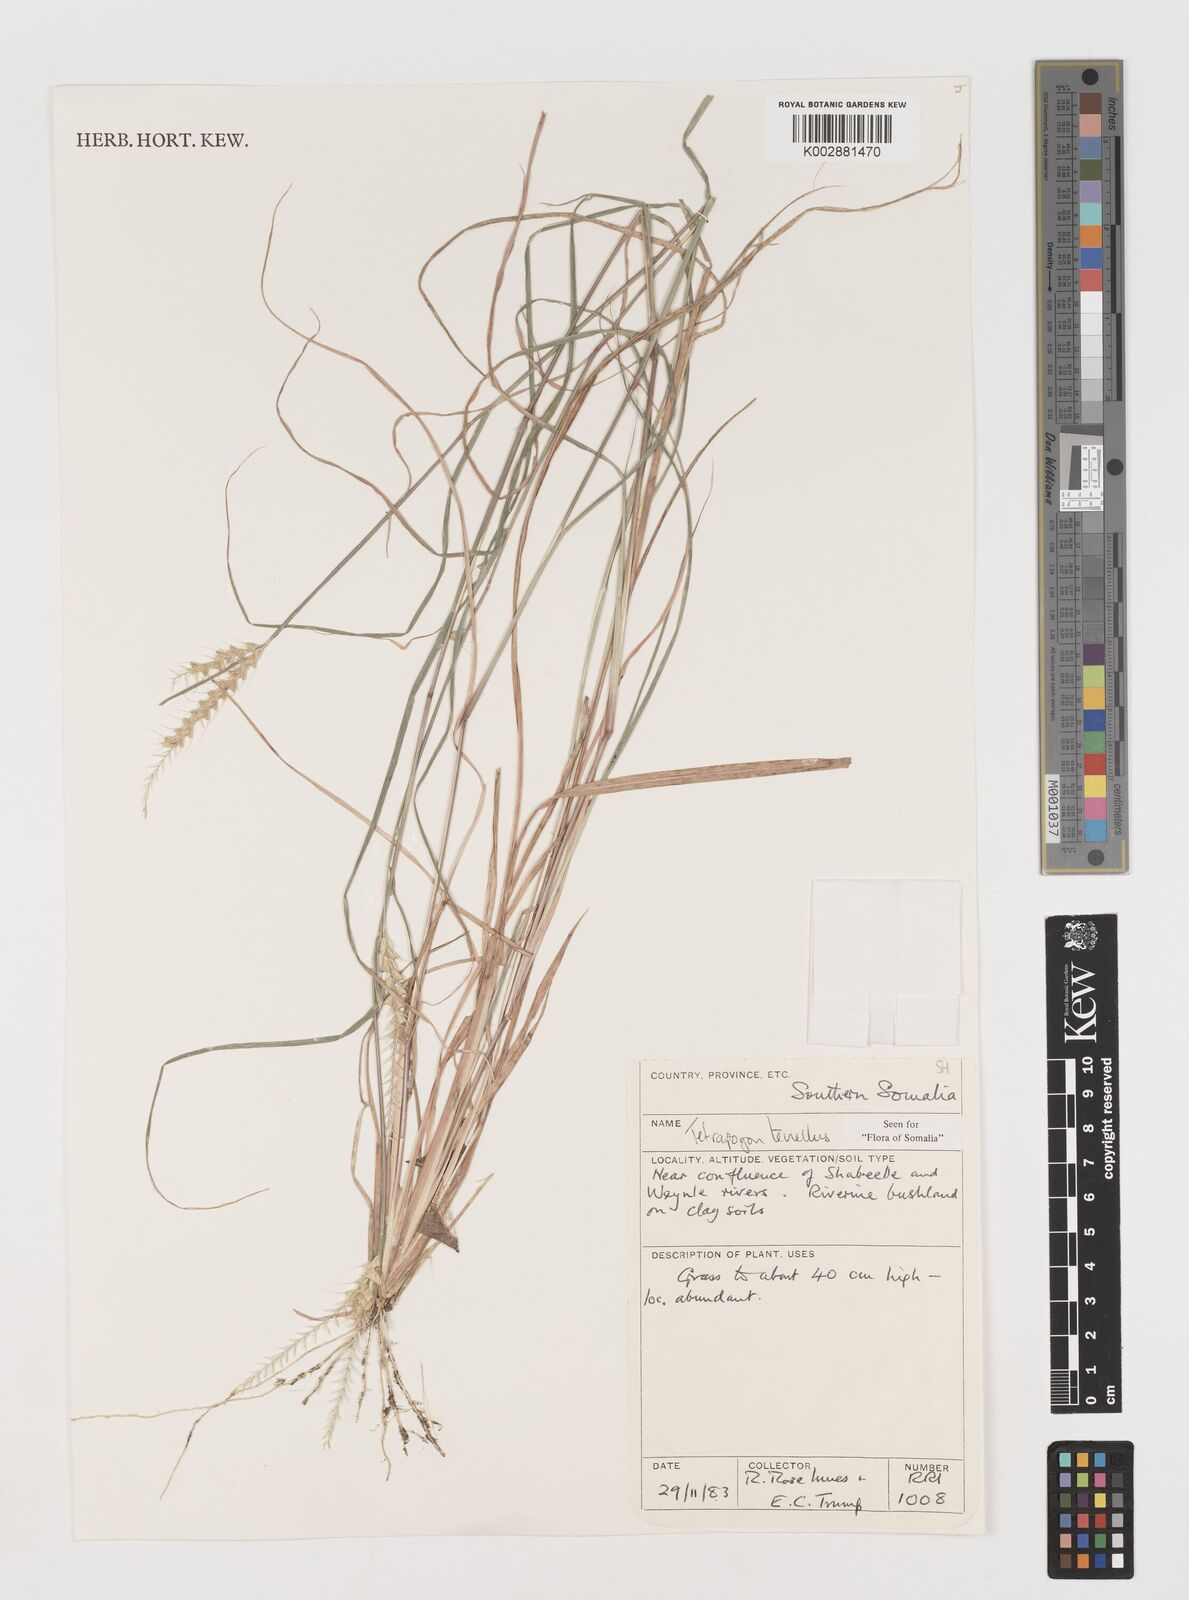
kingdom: Plantae
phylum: Tracheophyta
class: Liliopsida
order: Poales
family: Poaceae
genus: Tetrapogon
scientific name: Tetrapogon tenellus
